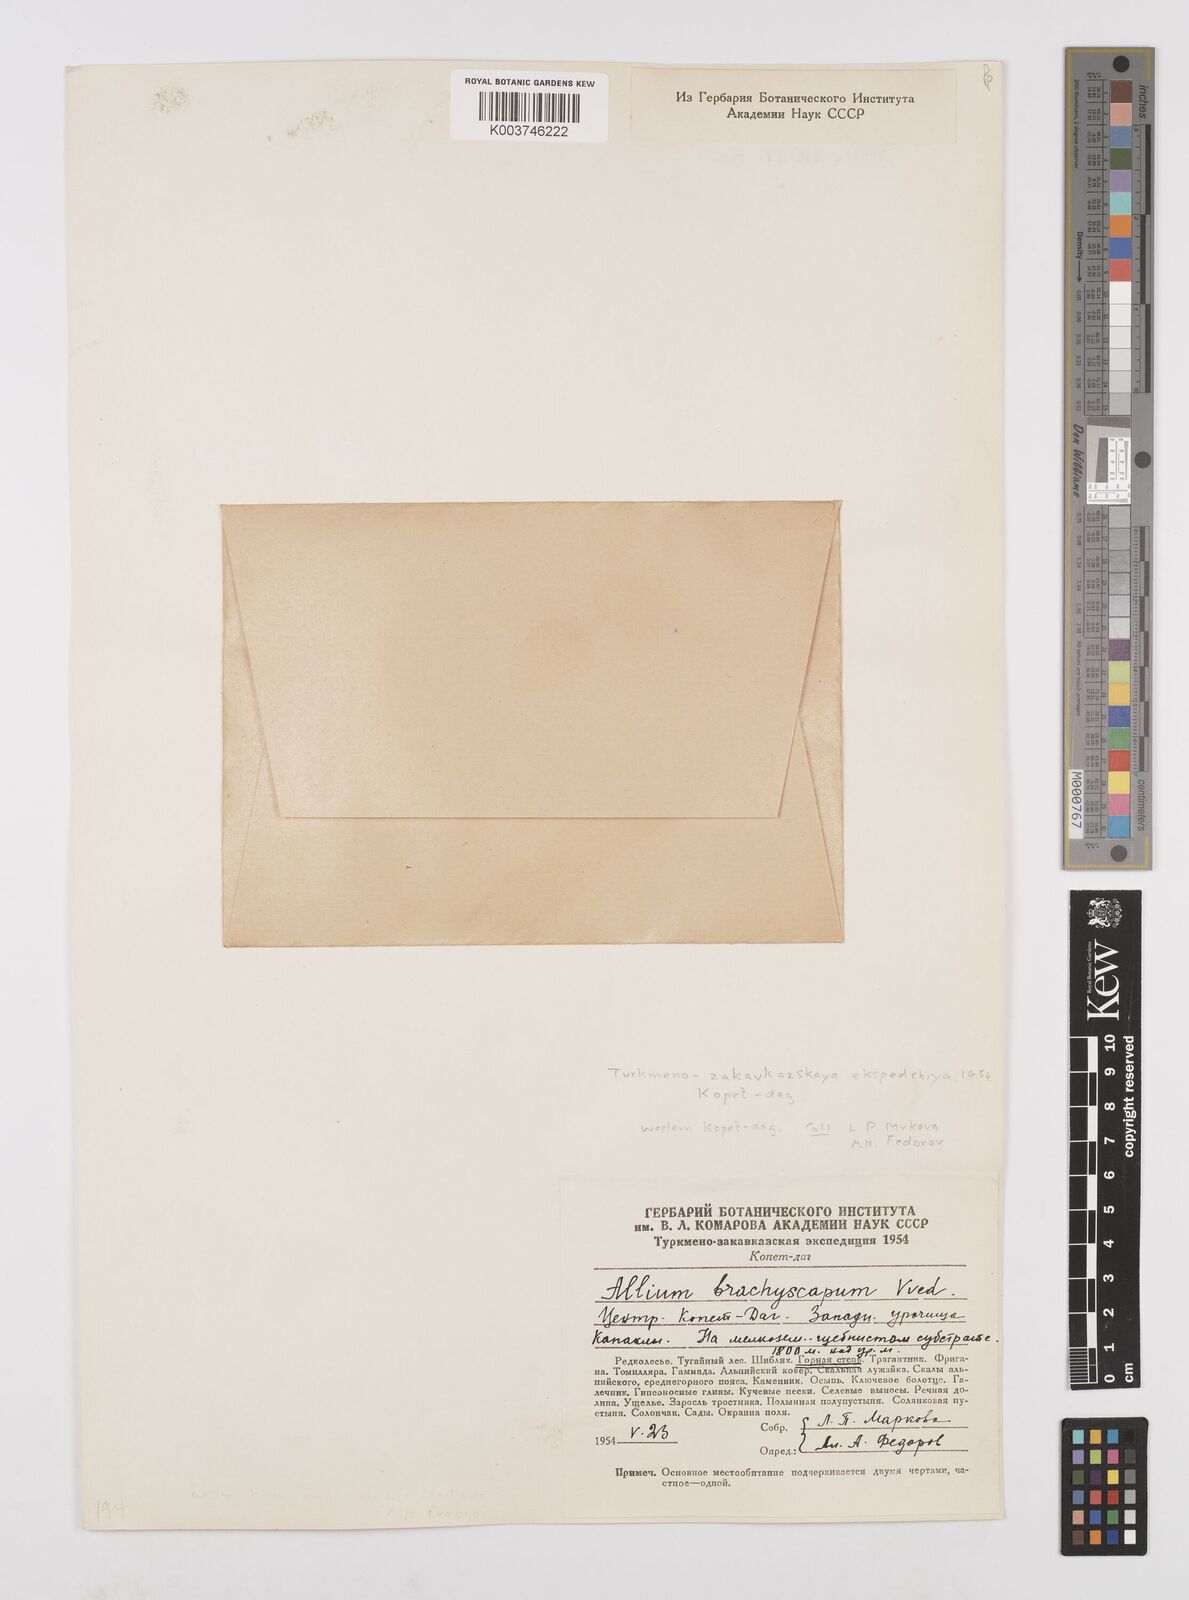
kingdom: Plantae
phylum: Tracheophyta
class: Liliopsida
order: Asparagales
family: Amaryllidaceae
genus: Allium
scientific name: Allium brachyscapum
